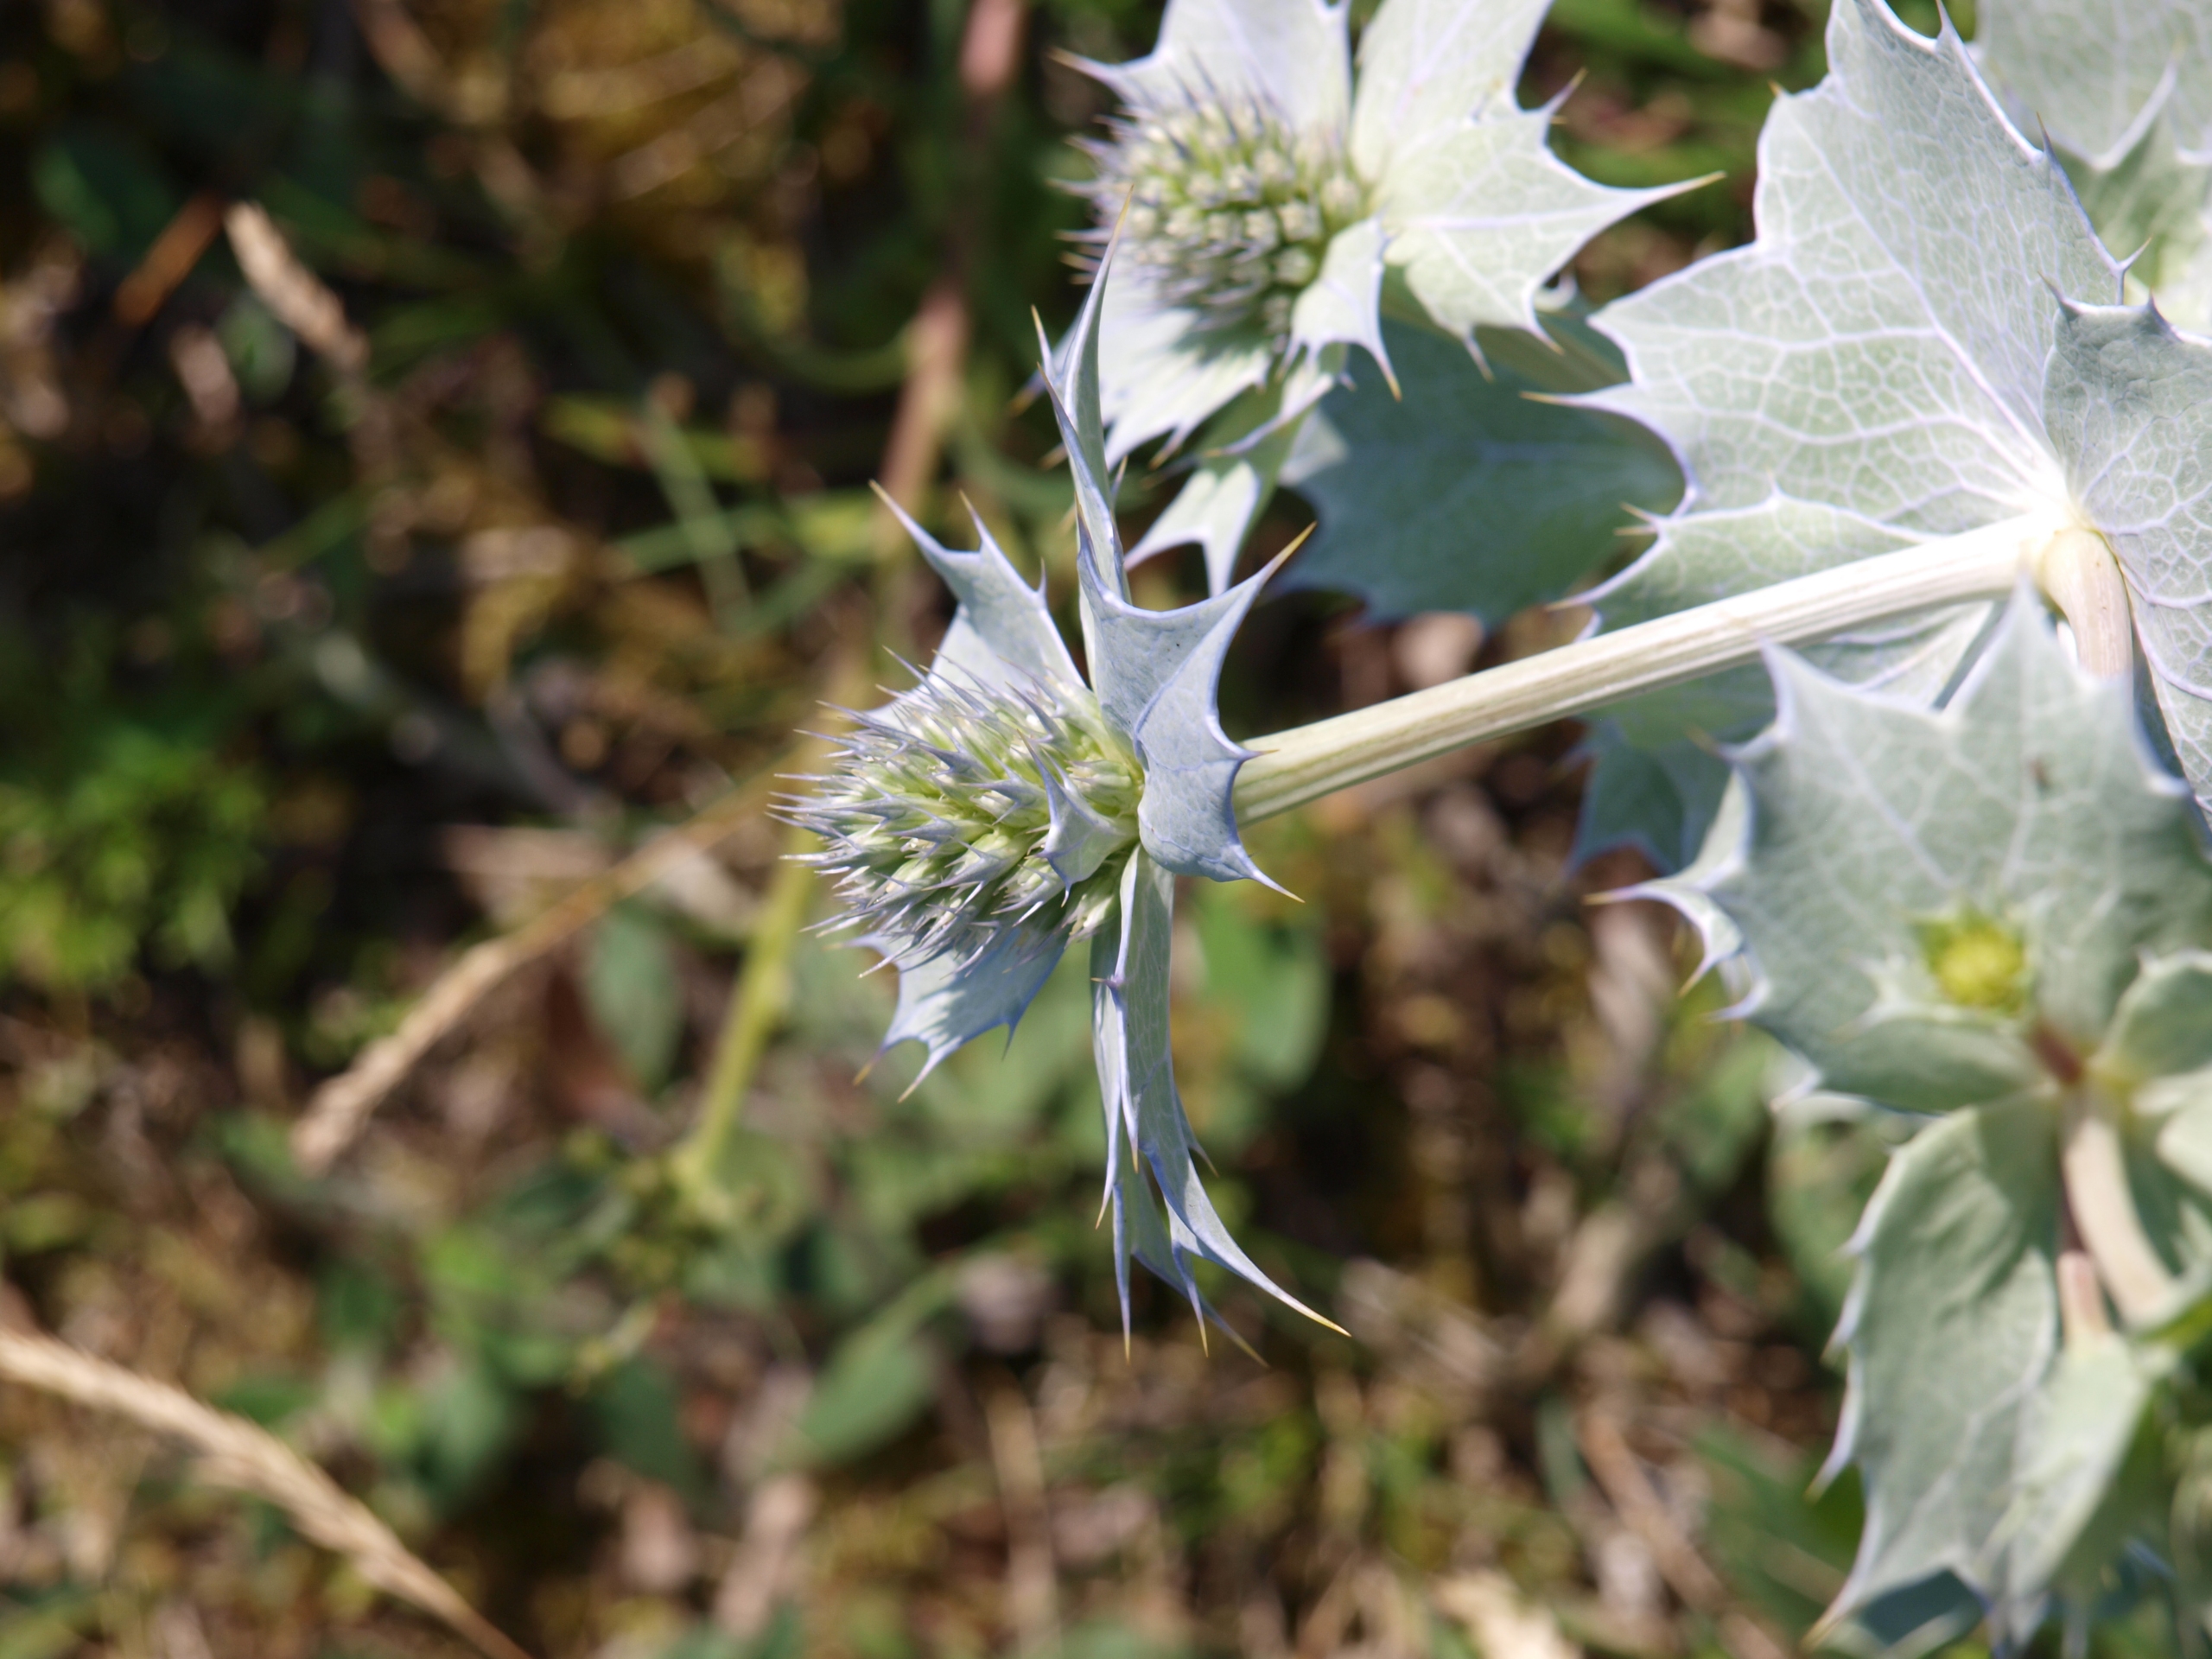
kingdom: Plantae
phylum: Tracheophyta
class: Magnoliopsida
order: Apiales
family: Apiaceae
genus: Eryngium
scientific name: Eryngium maritimum
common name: Strand-mandstro
